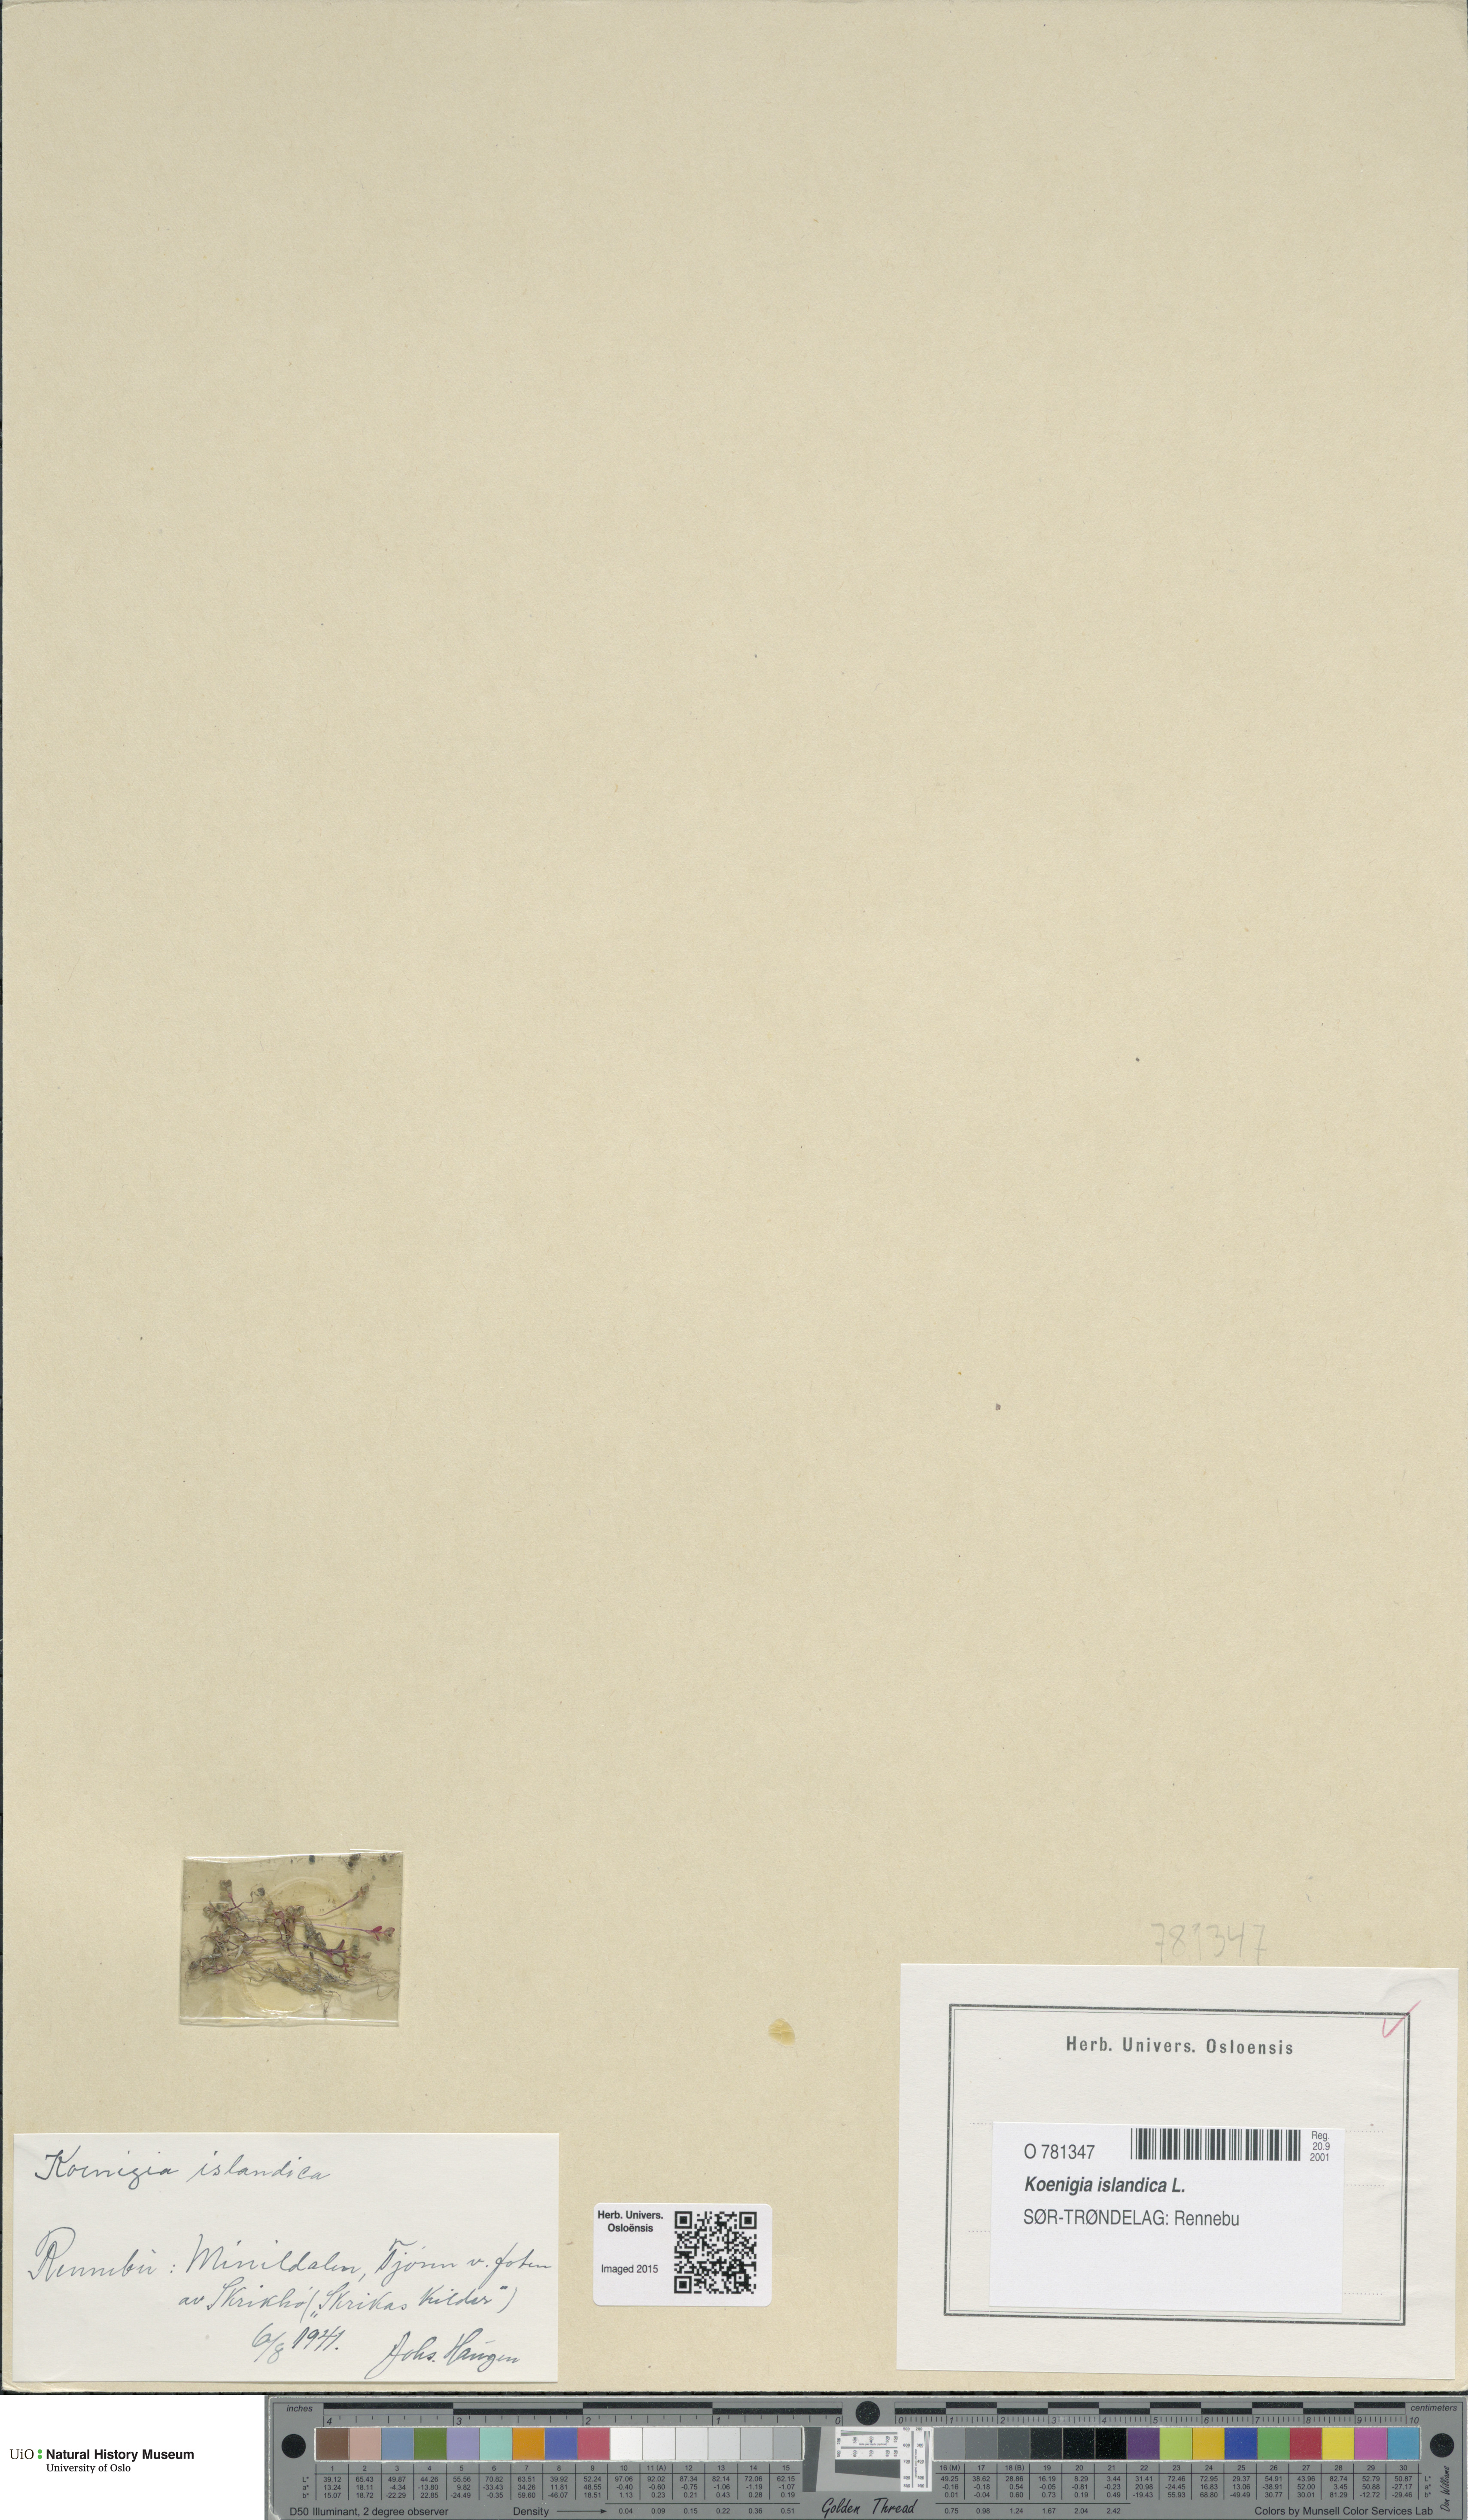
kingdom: Plantae
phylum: Tracheophyta
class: Magnoliopsida
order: Caryophyllales
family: Polygonaceae
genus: Koenigia
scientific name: Koenigia islandica
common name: Iceland-purslane
